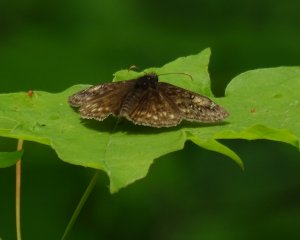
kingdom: Animalia
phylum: Arthropoda
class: Insecta
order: Lepidoptera
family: Hesperiidae
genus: Gesta
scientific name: Gesta
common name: Juvenal's Duskywing
